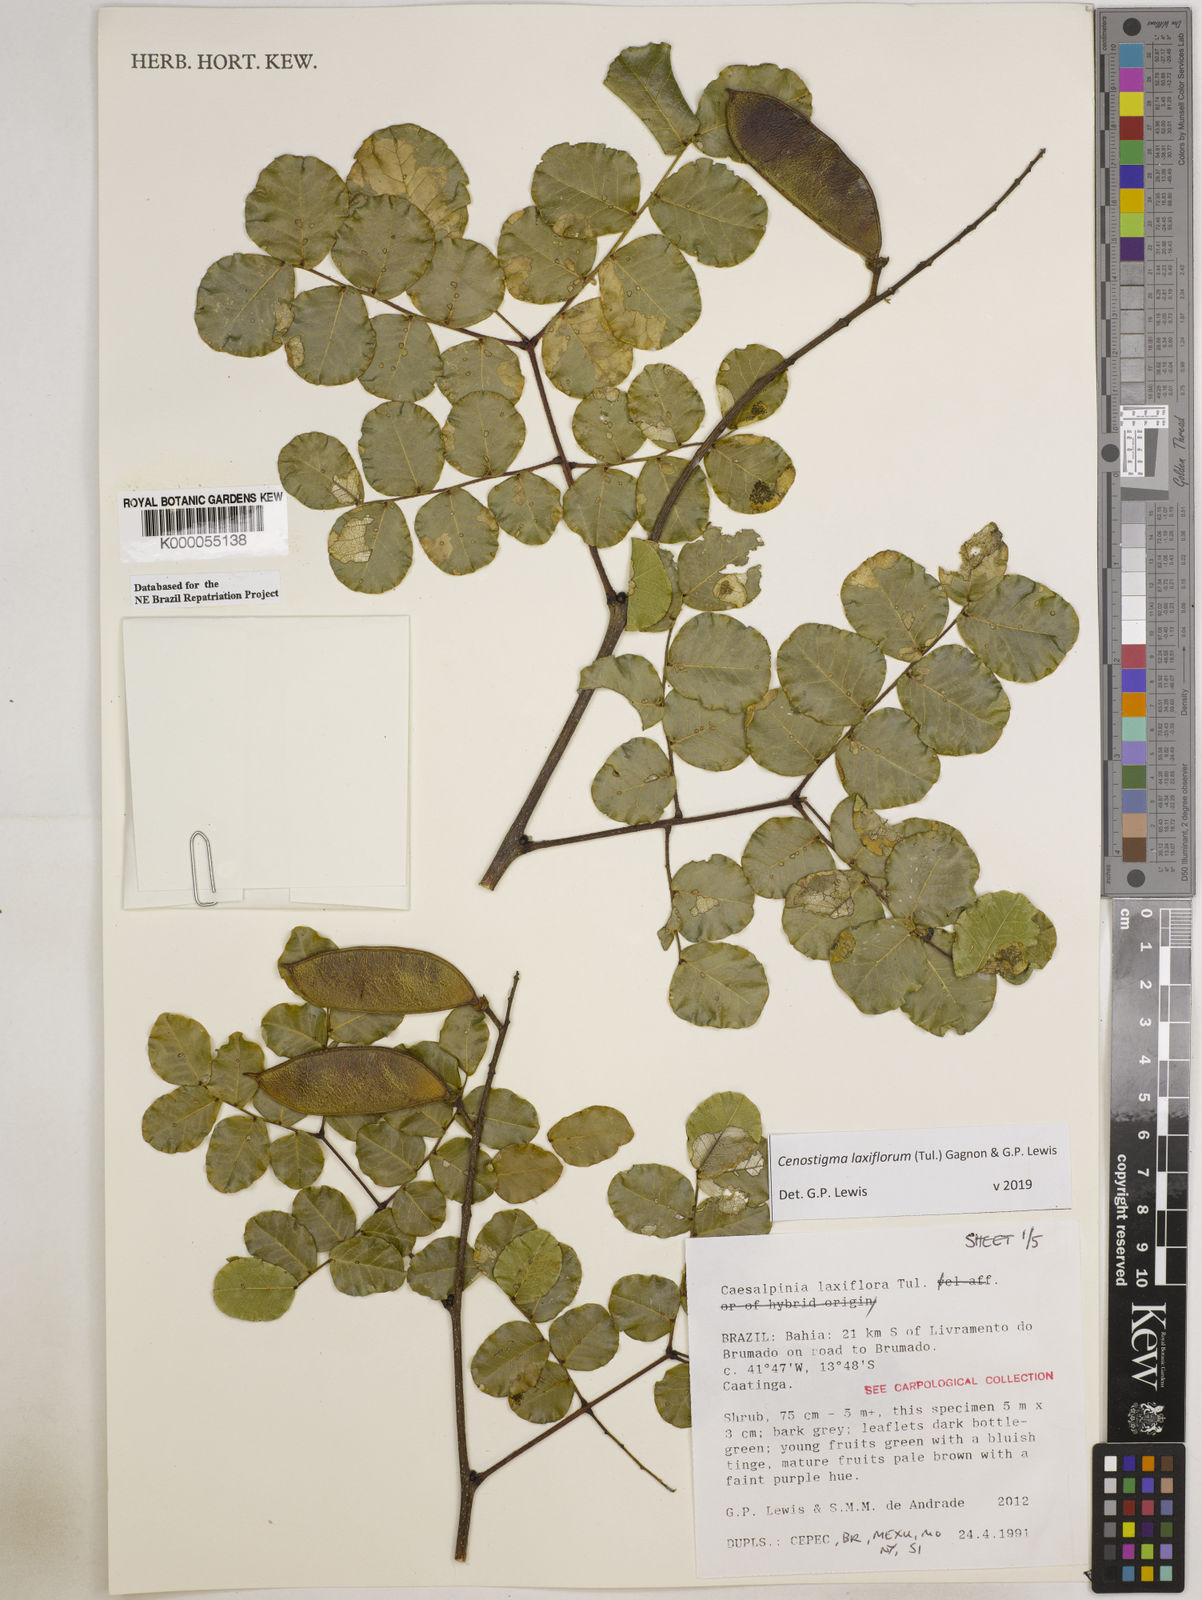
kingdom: Plantae
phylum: Tracheophyta
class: Magnoliopsida
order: Fabales
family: Fabaceae
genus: Cenostigma
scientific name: Cenostigma laxiflorum
